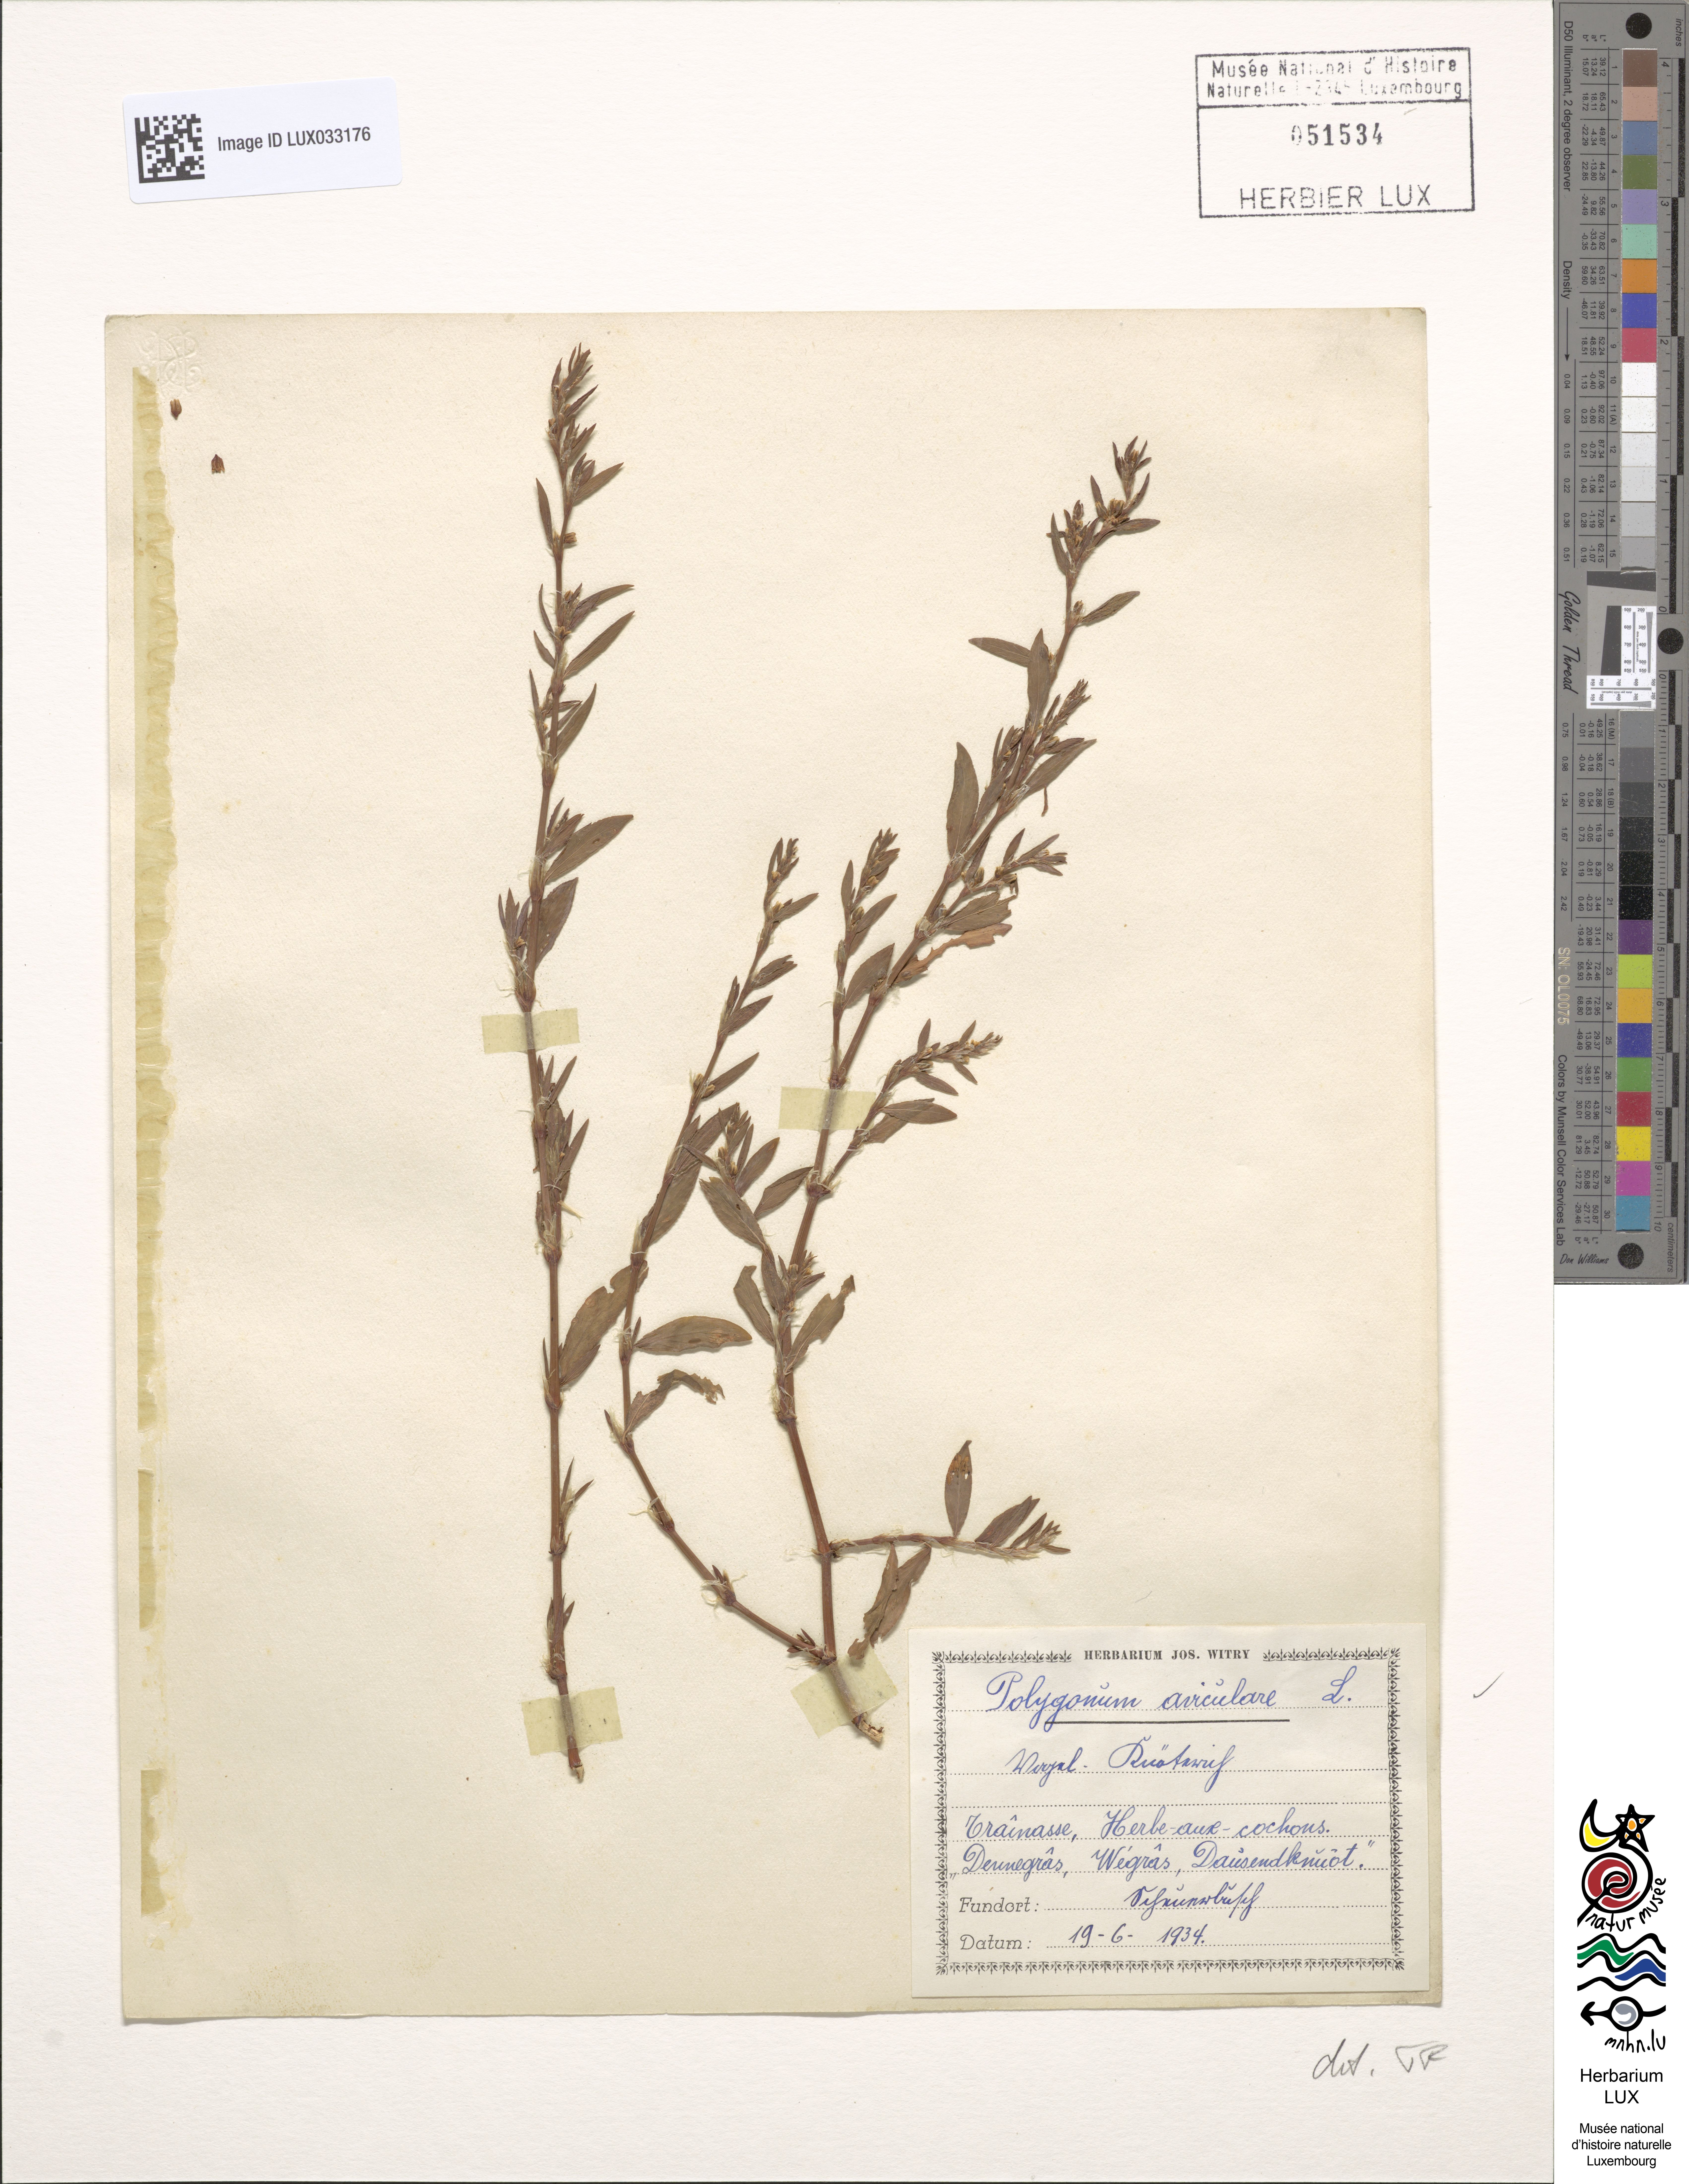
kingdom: Plantae
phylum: Tracheophyta
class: Magnoliopsida
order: Caryophyllales
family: Polygonaceae
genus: Polygonum
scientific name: Polygonum aviculare
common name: Prostrate knotweed
